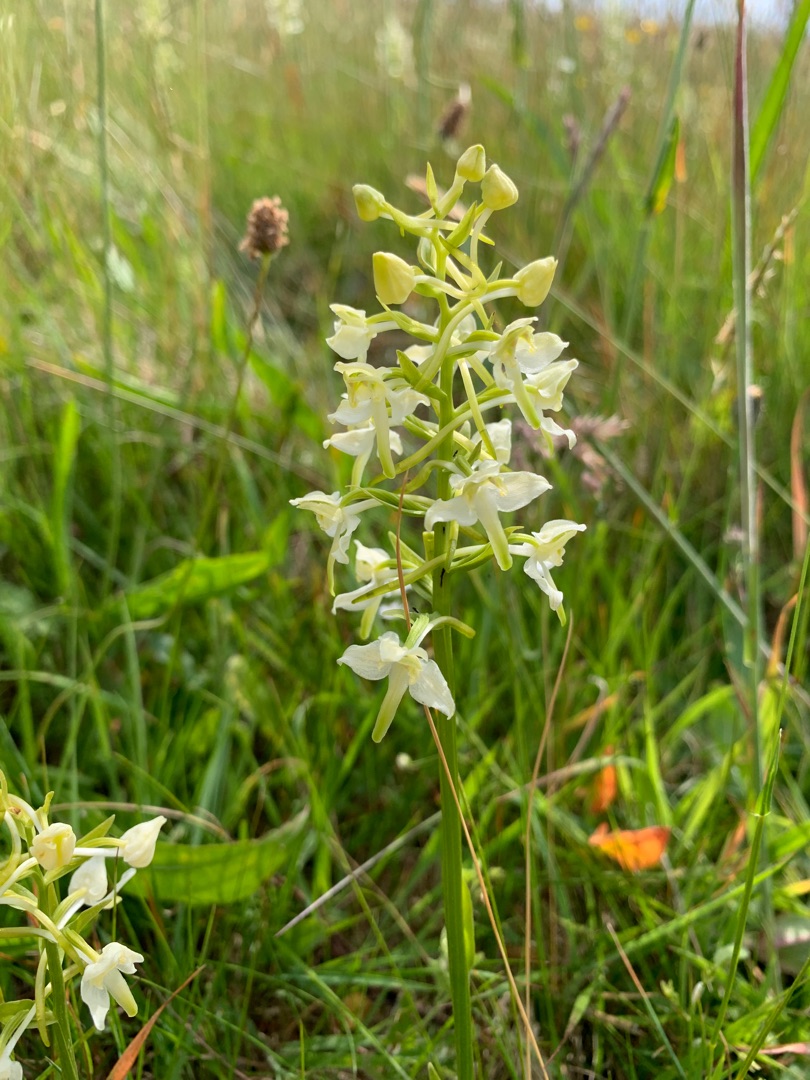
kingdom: Plantae
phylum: Tracheophyta
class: Liliopsida
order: Asparagales
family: Orchidaceae
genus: Platanthera
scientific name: Platanthera chlorantha
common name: Skov-gøgelilje
